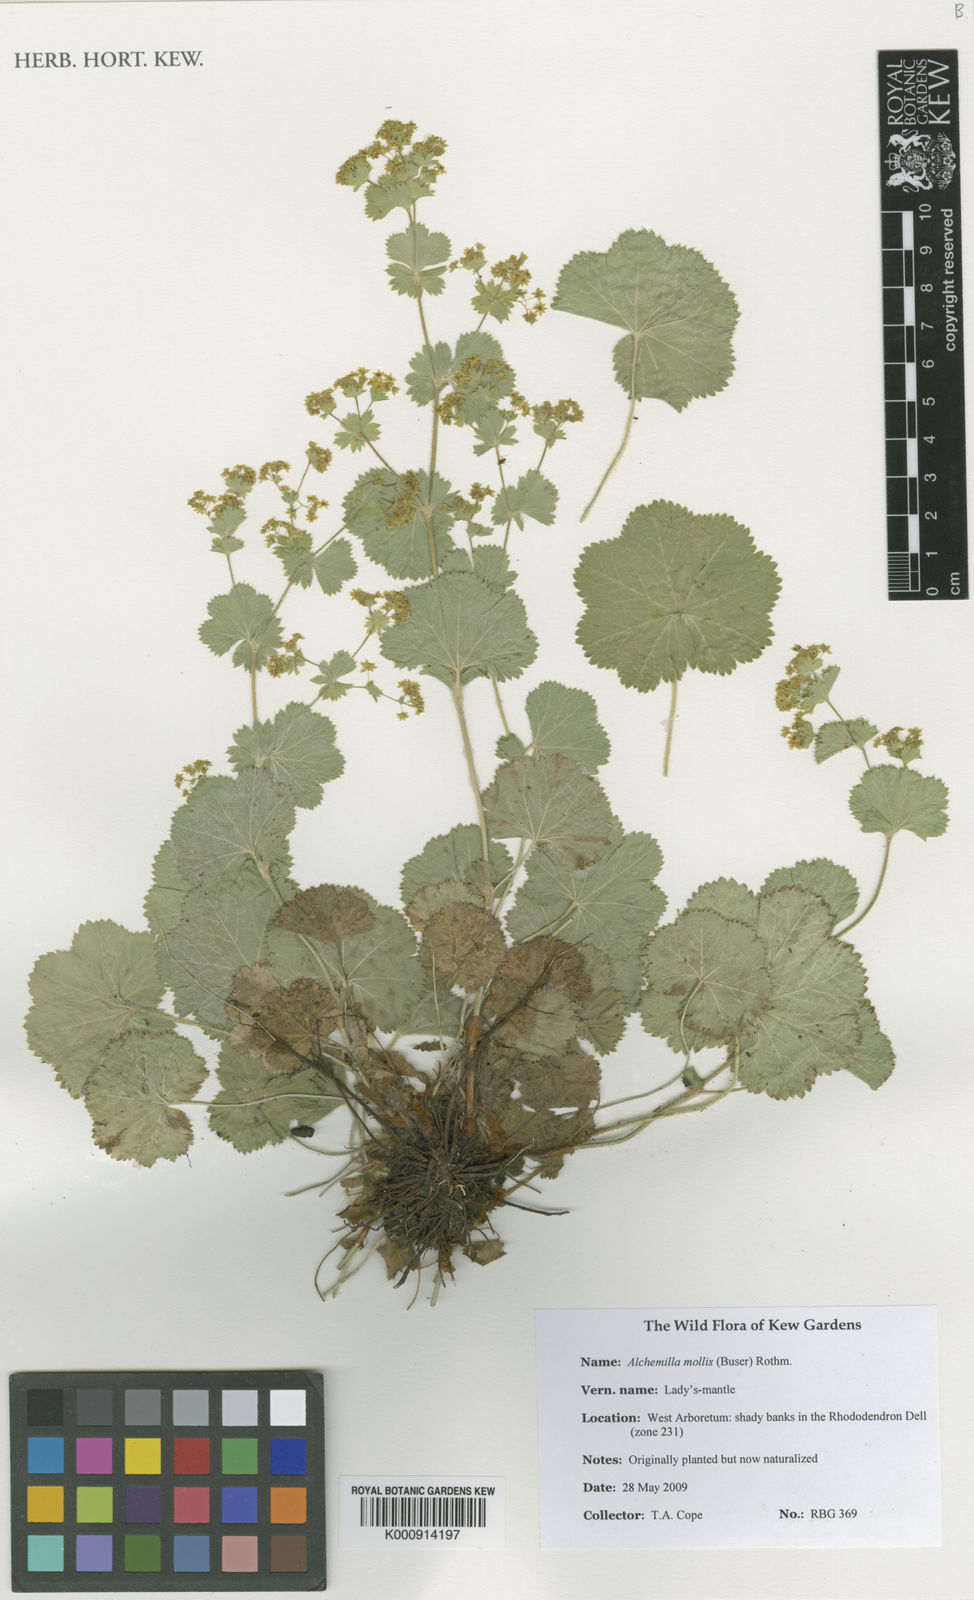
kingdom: Plantae
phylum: Tracheophyta
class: Magnoliopsida
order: Rosales
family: Rosaceae
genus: Alchemilla
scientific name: Alchemilla mollis
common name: Lady's-mantle
